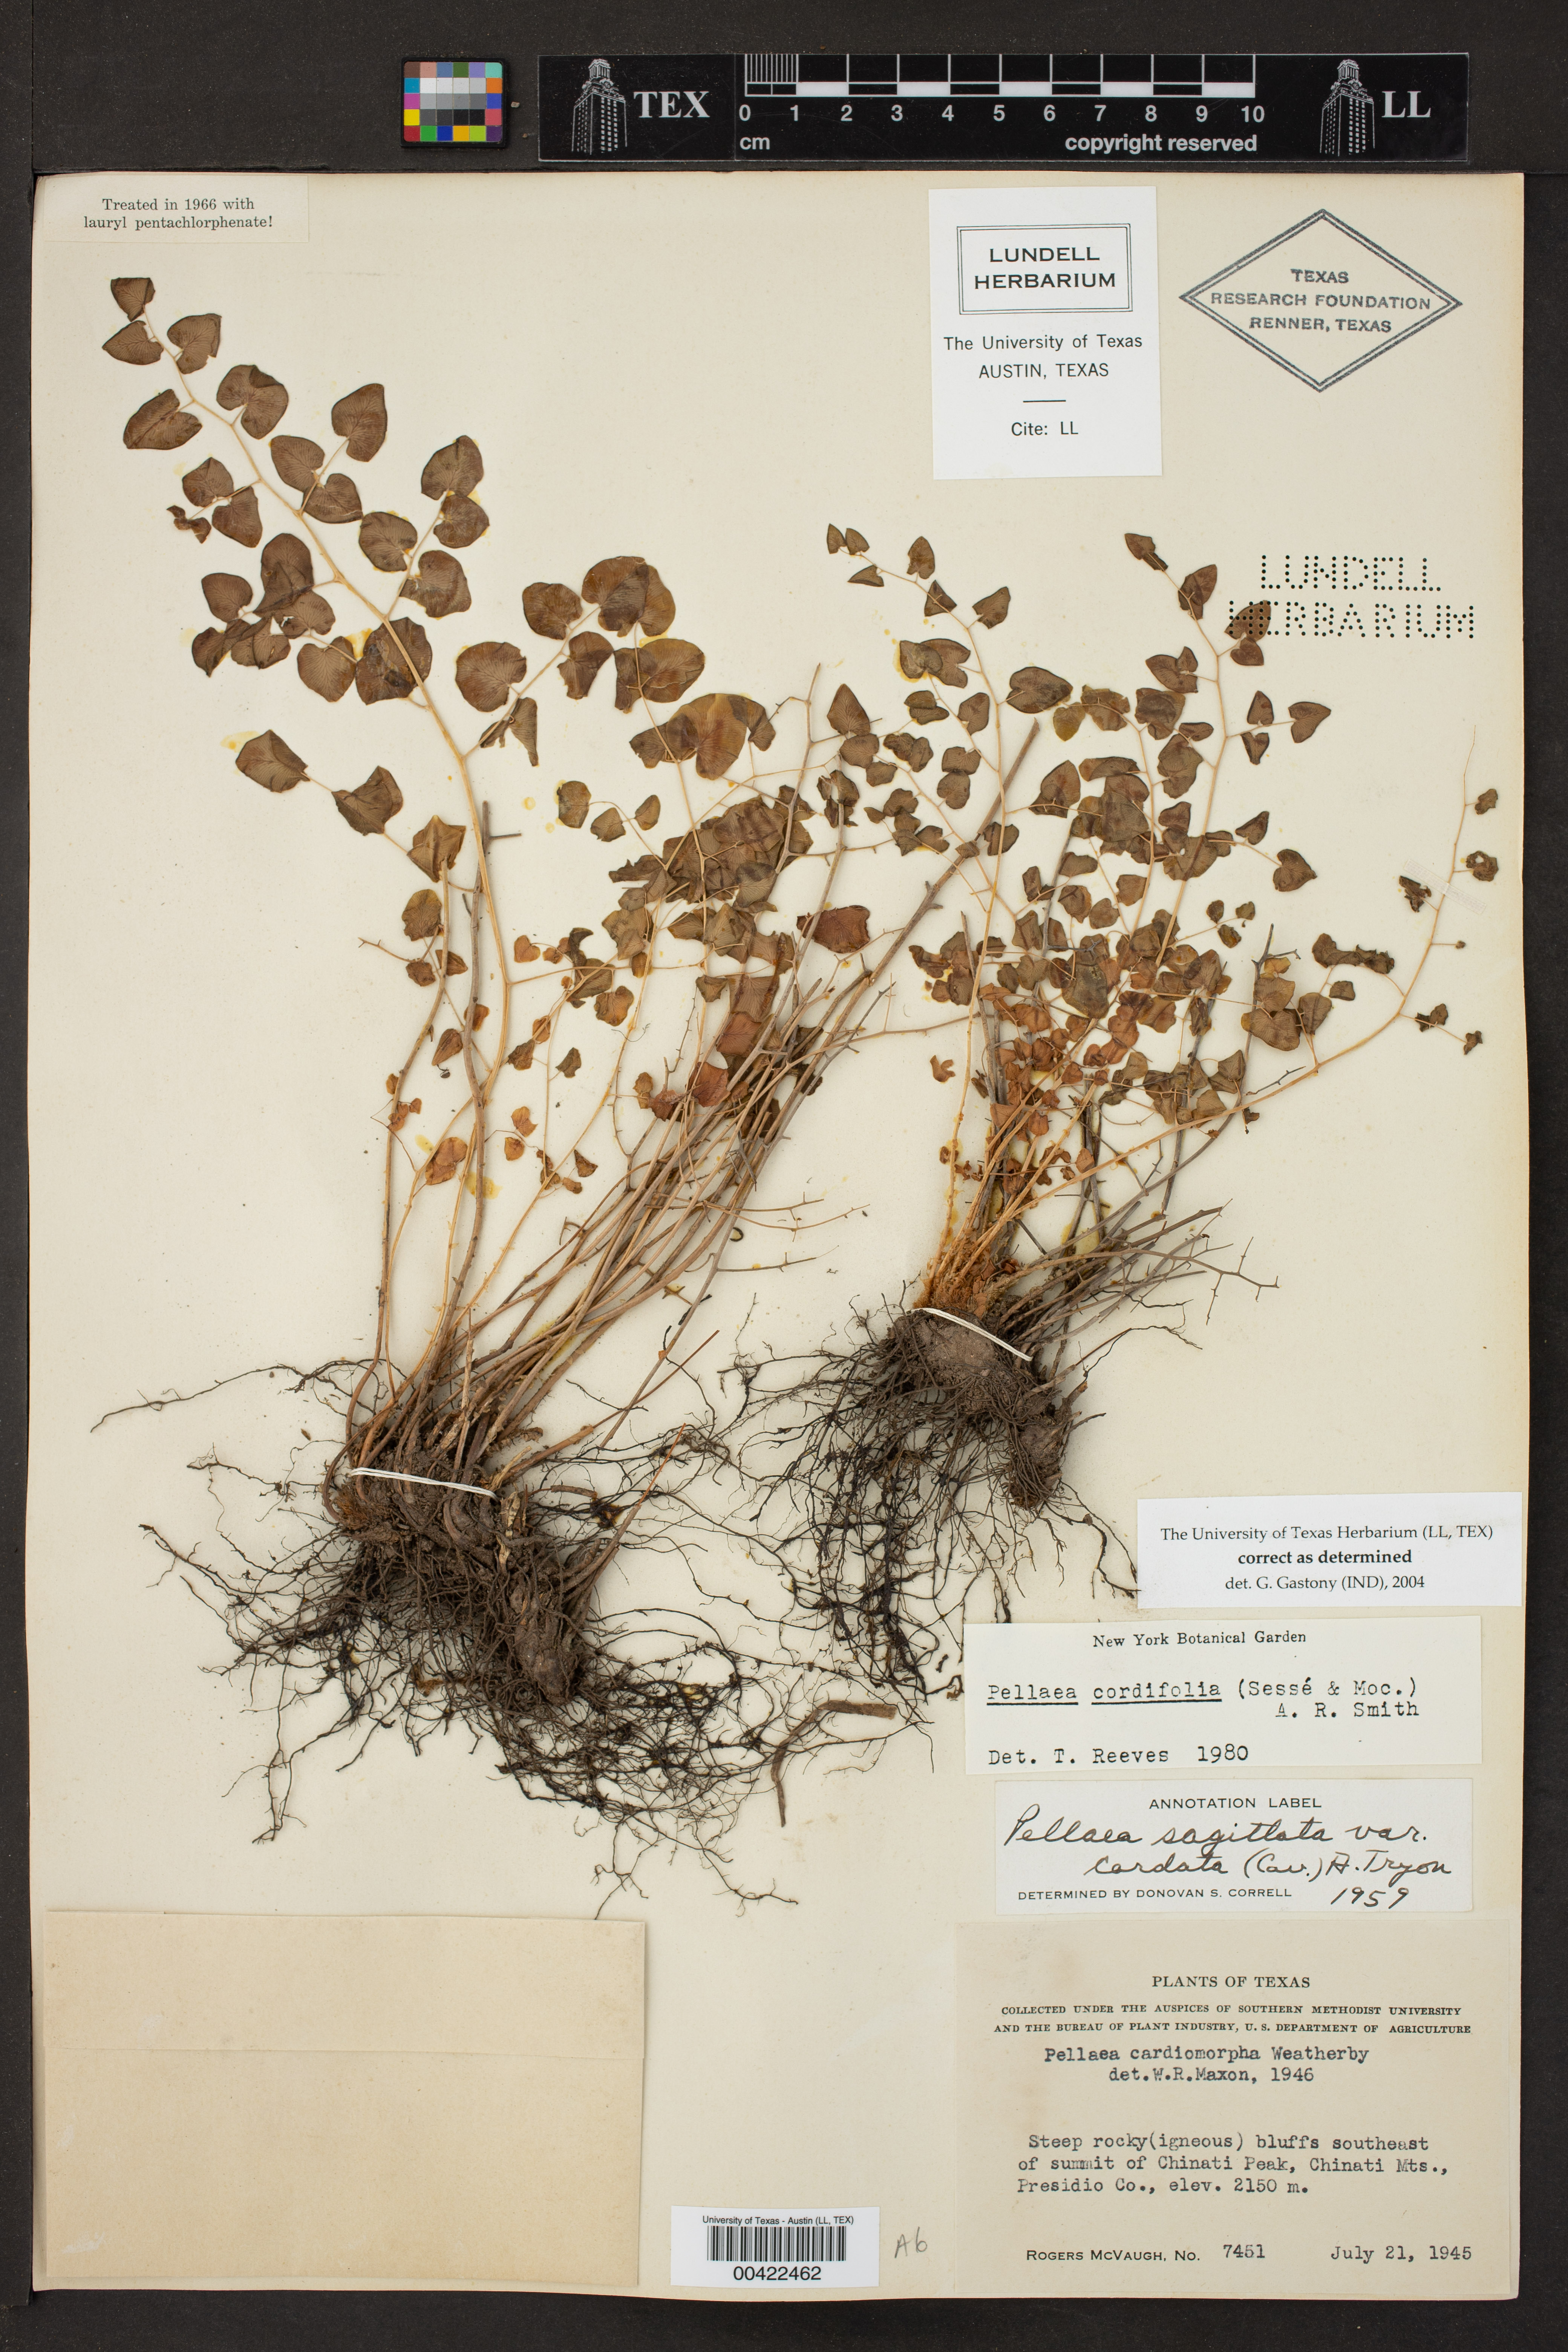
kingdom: Plantae
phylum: Tracheophyta
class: Polypodiopsida
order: Polypodiales
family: Pteridaceae
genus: Pellaea
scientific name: Pellaea cordifolia
